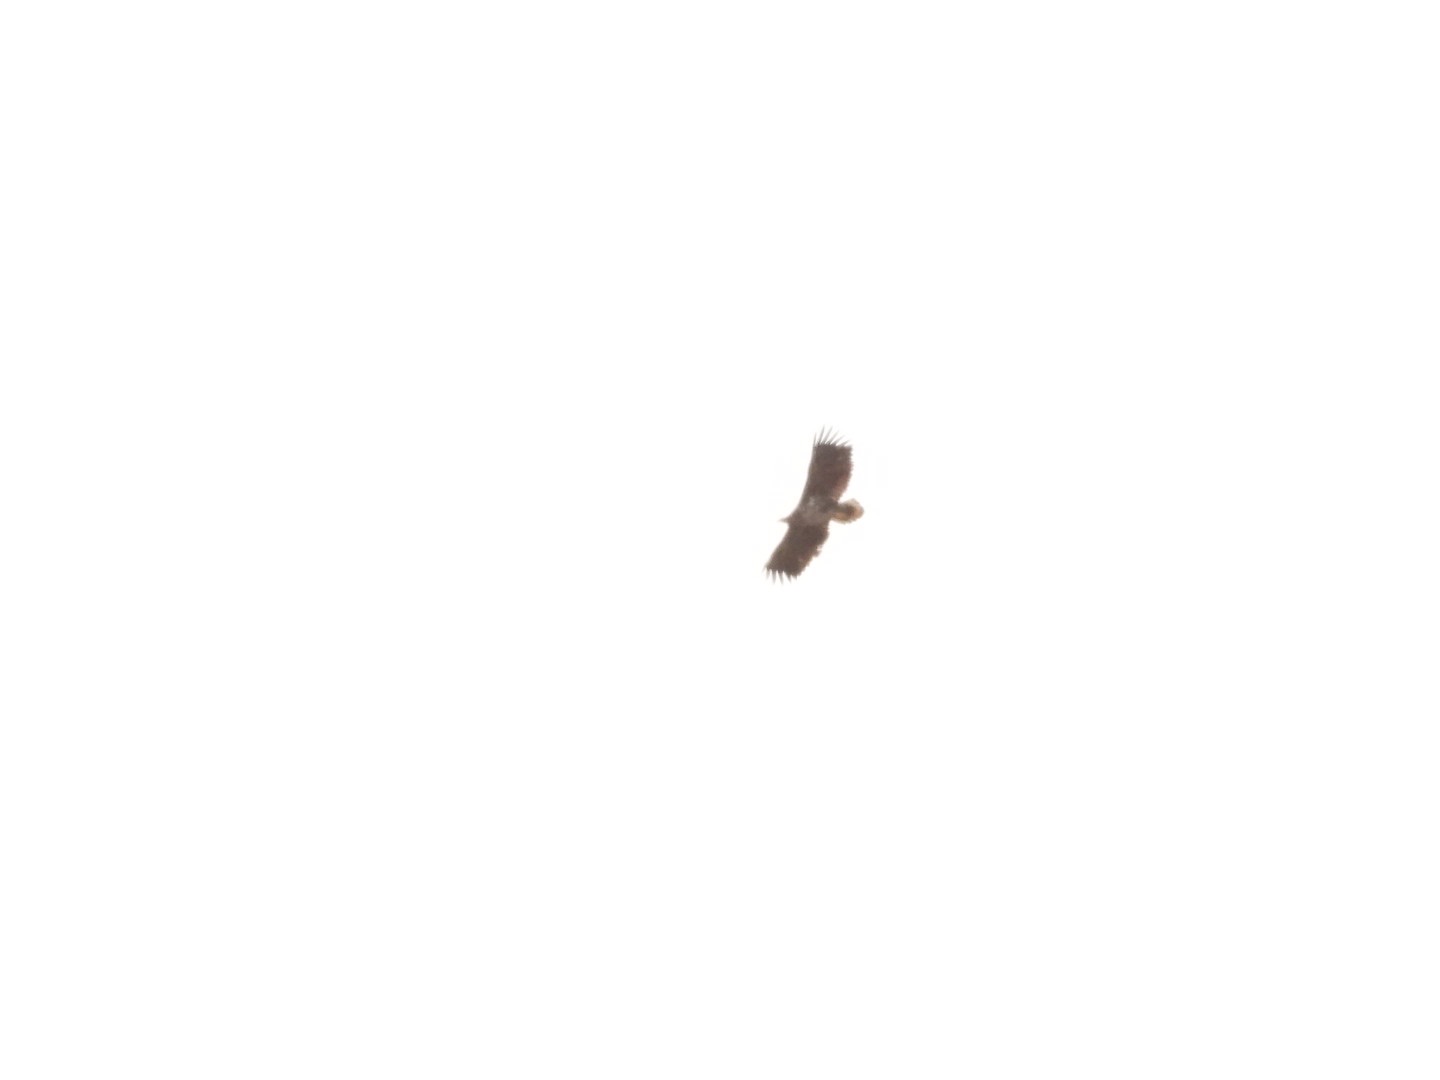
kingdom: Animalia
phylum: Chordata
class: Aves
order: Accipitriformes
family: Accipitridae
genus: Haliaeetus
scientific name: Haliaeetus albicilla
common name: Havørn
